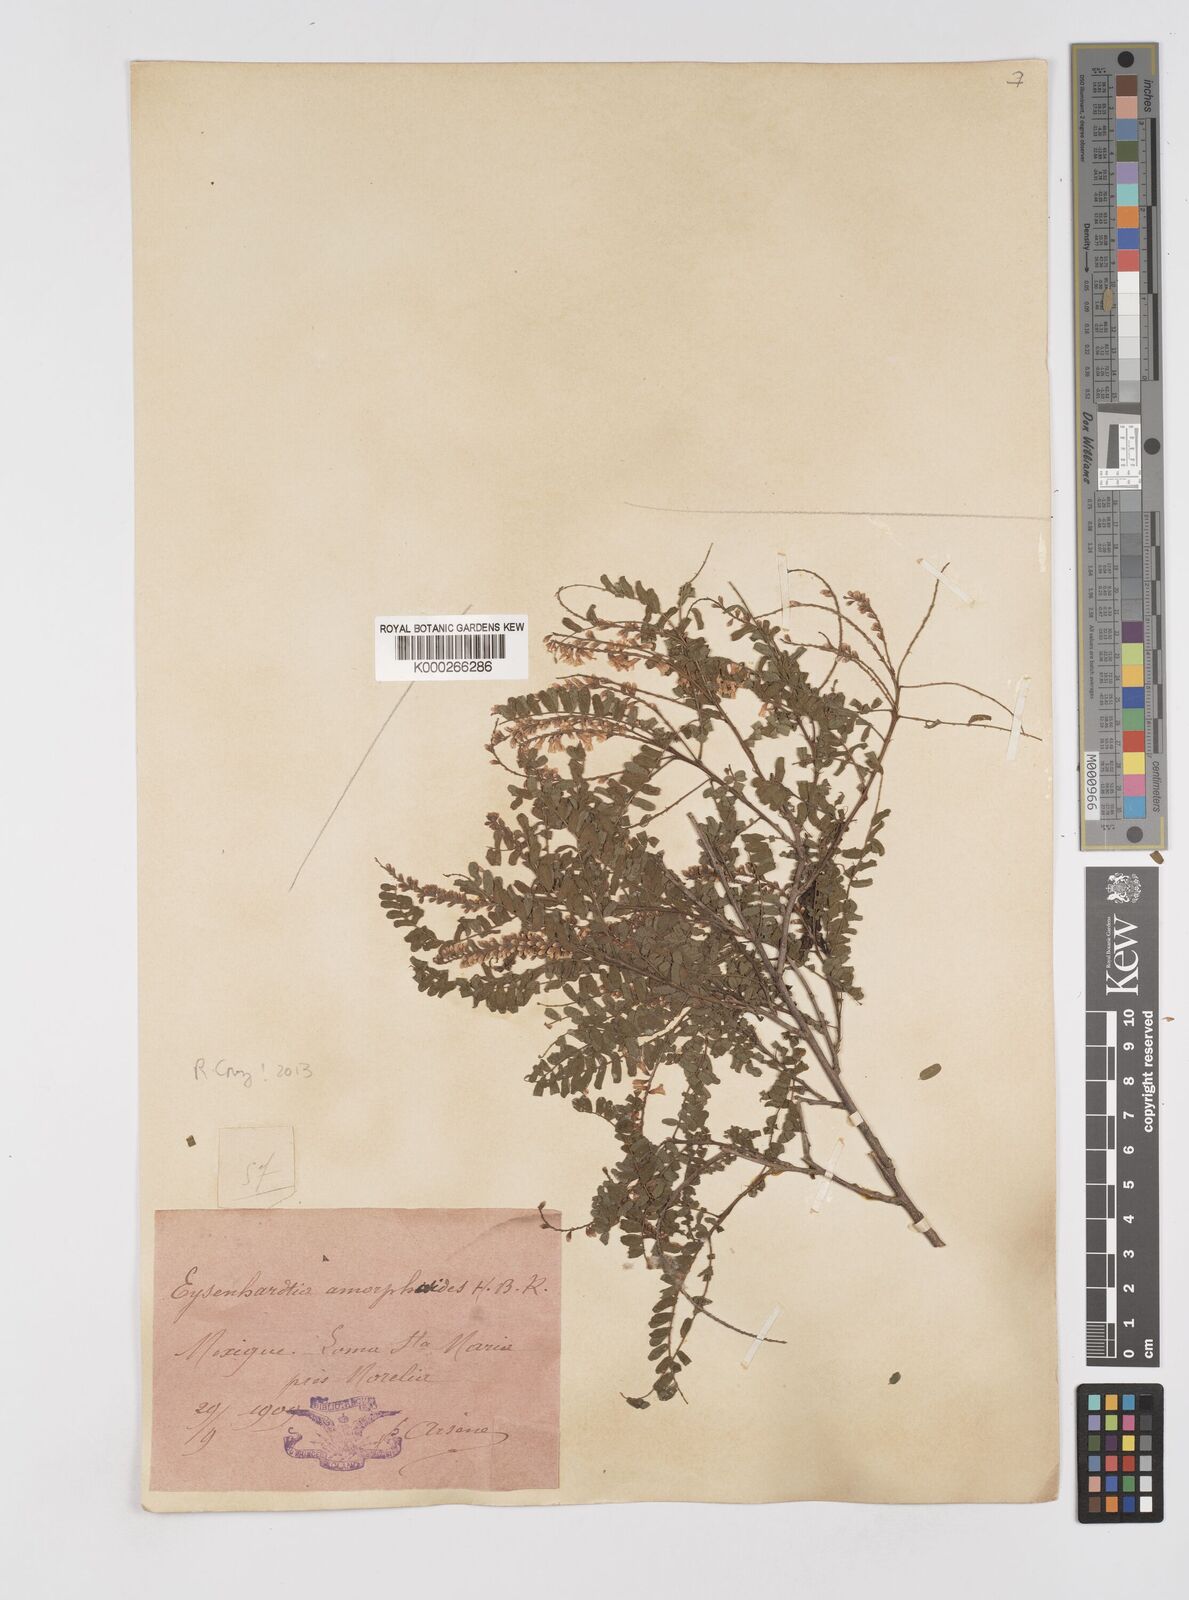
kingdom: Plantae
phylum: Tracheophyta
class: Magnoliopsida
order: Fabales
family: Fabaceae
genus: Eysenhardtia
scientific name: Eysenhardtia polystachya
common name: Kidneywood
